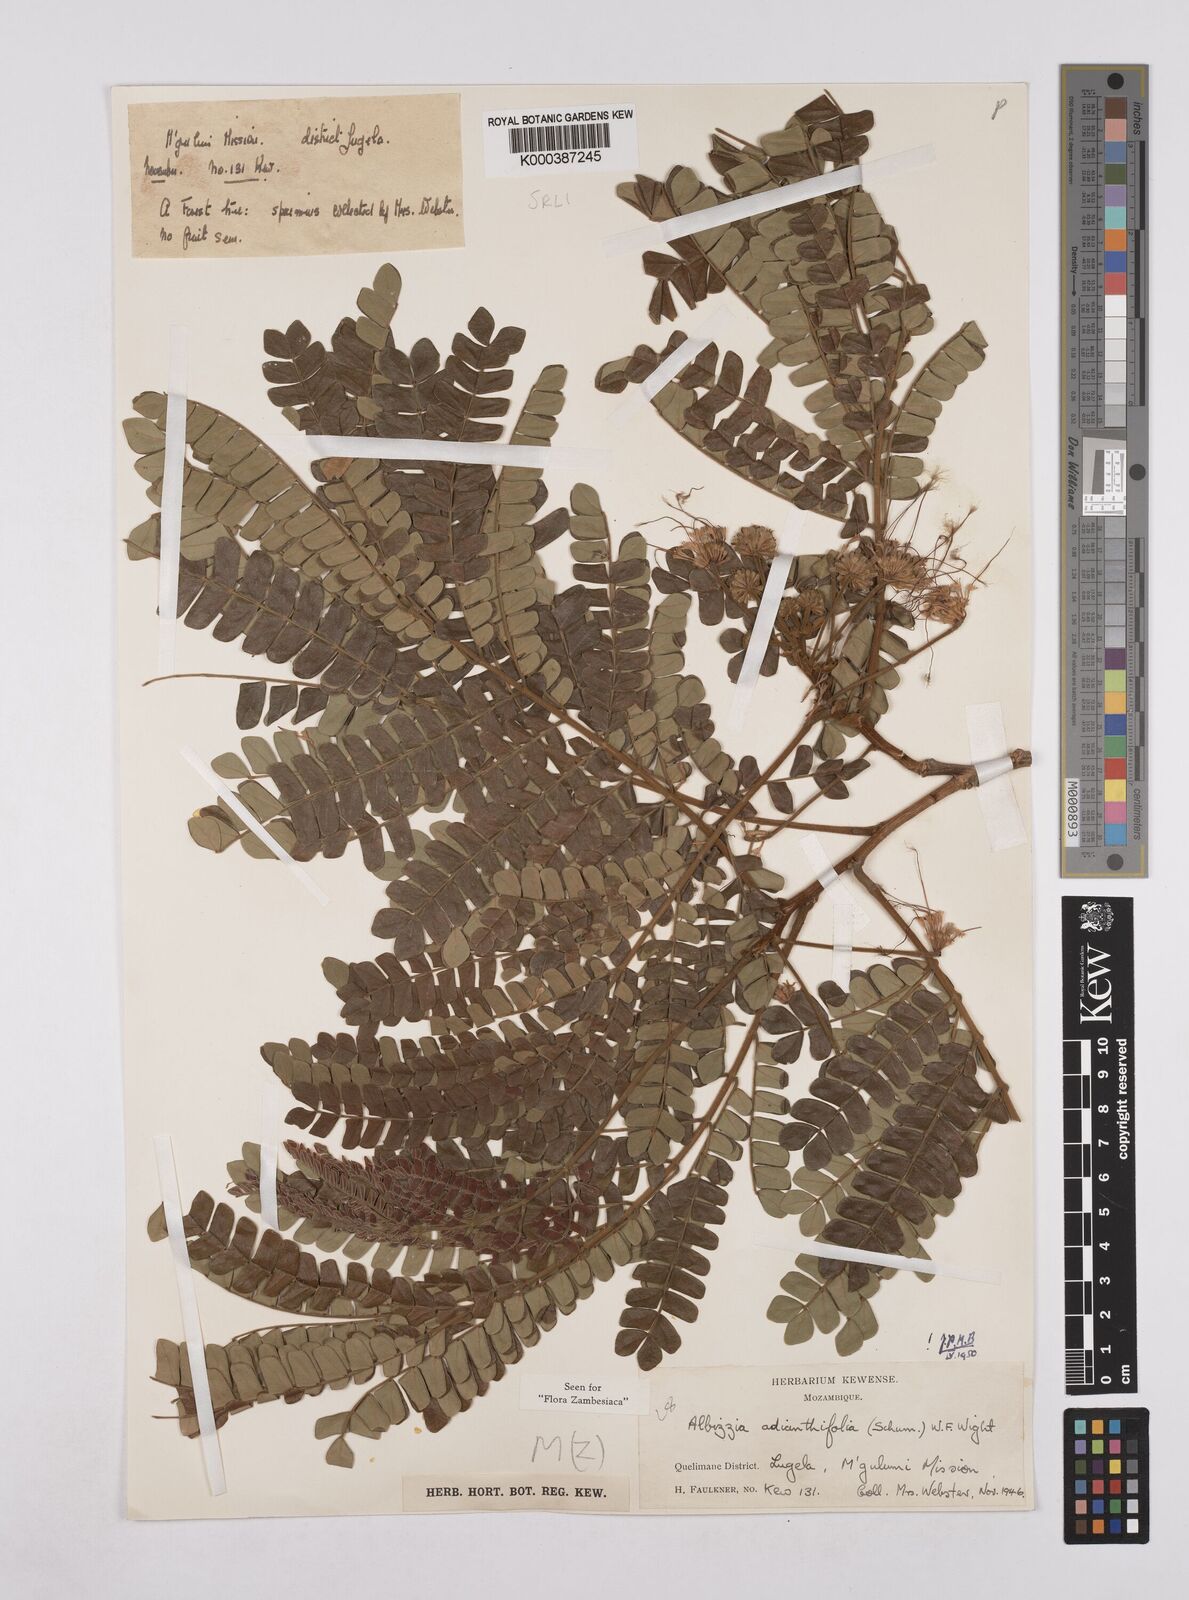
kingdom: Plantae
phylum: Tracheophyta
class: Magnoliopsida
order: Fabales
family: Fabaceae
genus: Albizia
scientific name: Albizia adianthifolia
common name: West african albizia
